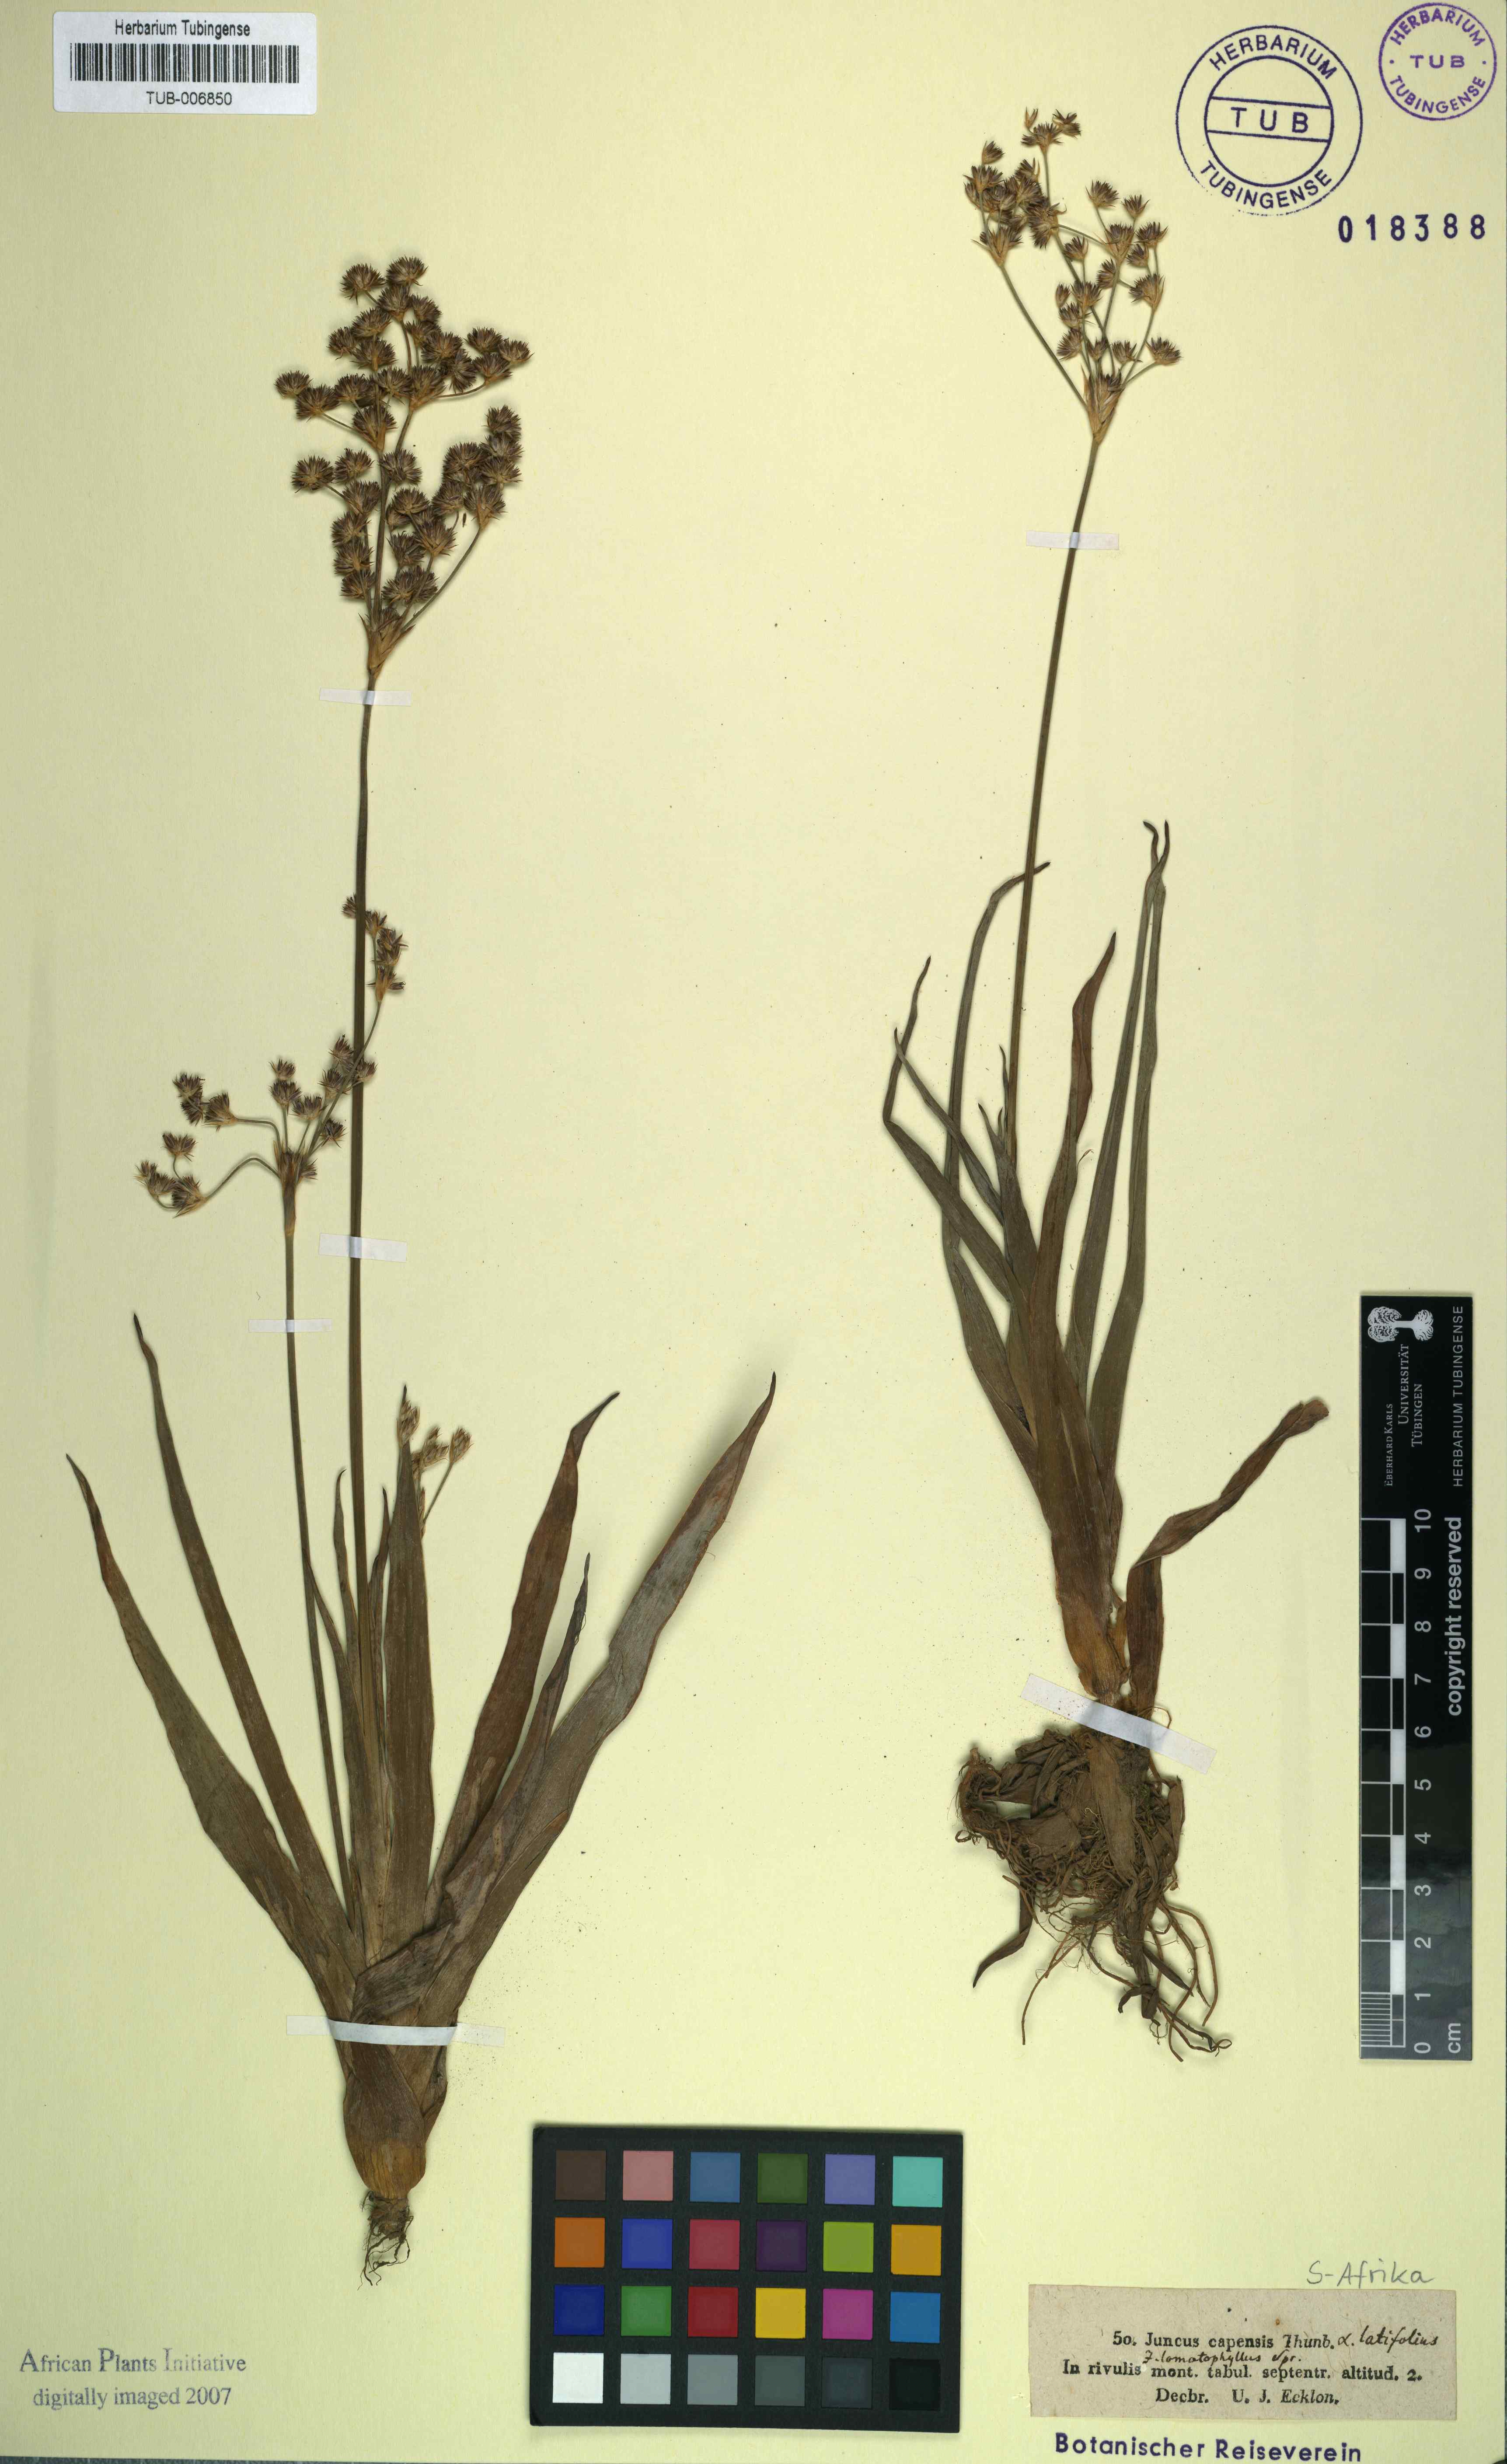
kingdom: Plantae
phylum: Tracheophyta
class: Liliopsida
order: Poales
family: Juncaceae
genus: Juncus
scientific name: Juncus capensis
